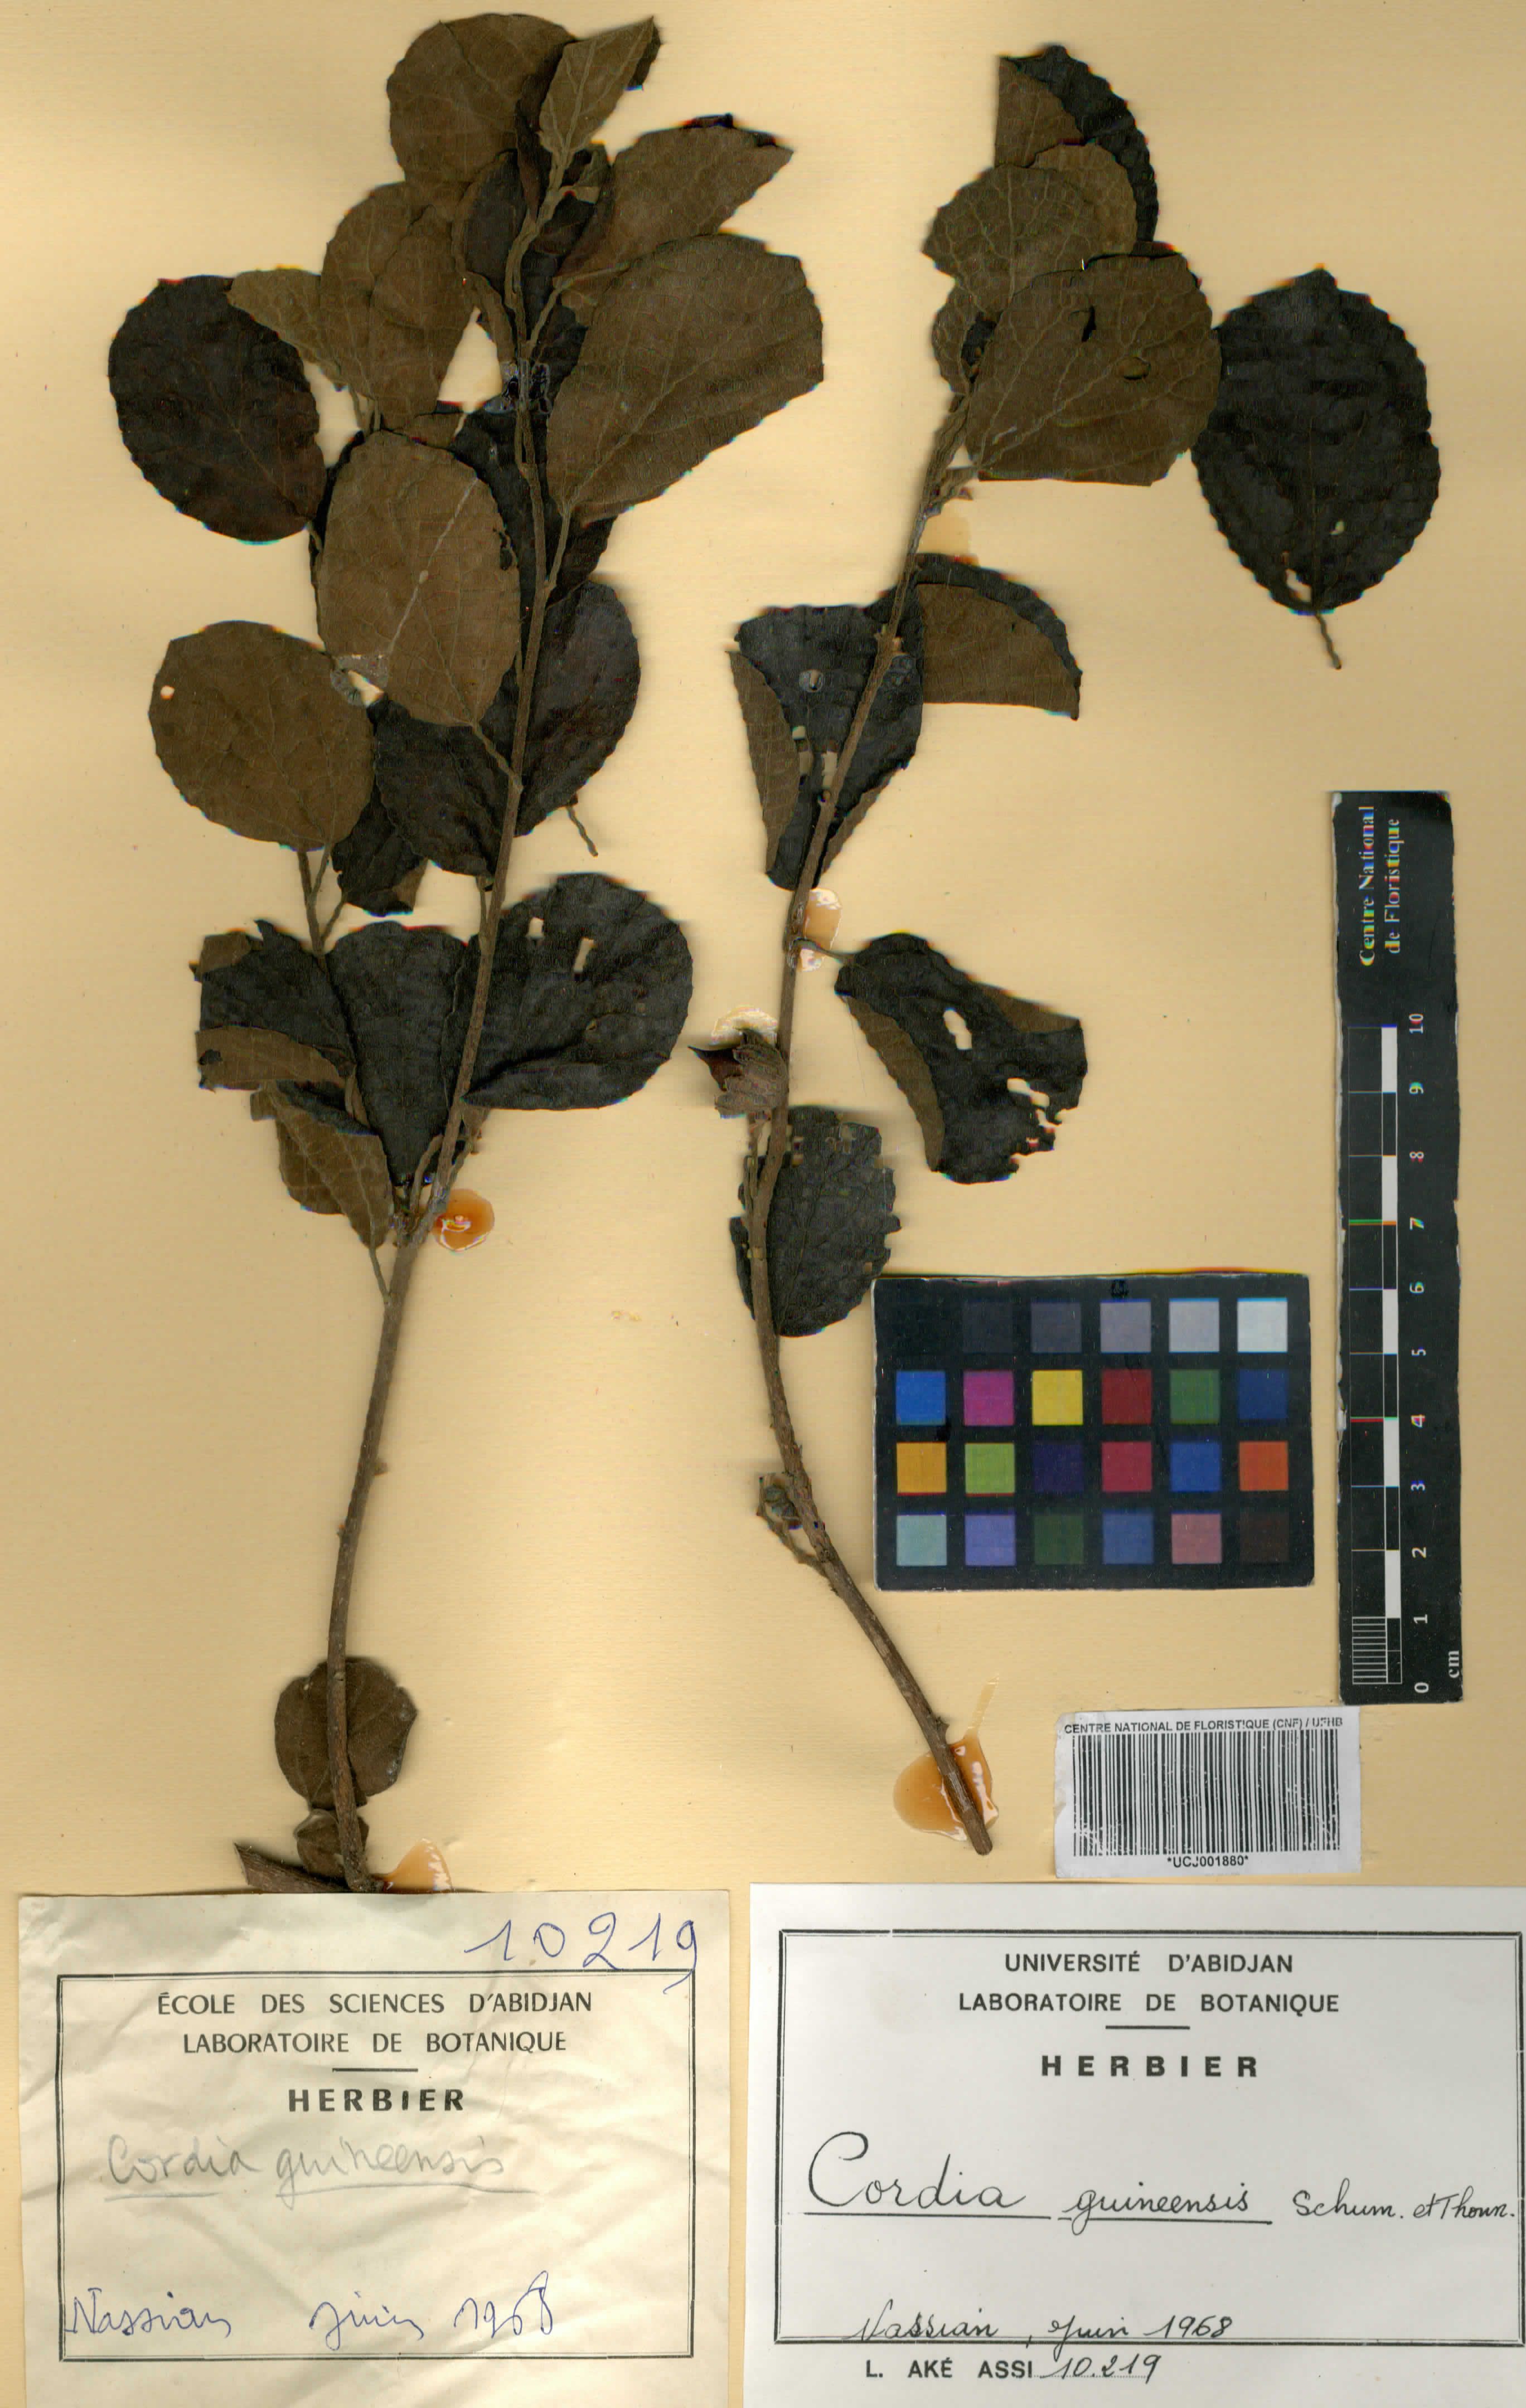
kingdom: Plantae
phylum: Tracheophyta
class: Magnoliopsida
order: Boraginales
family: Cordiaceae
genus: Cordia
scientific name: Cordia guineensis
